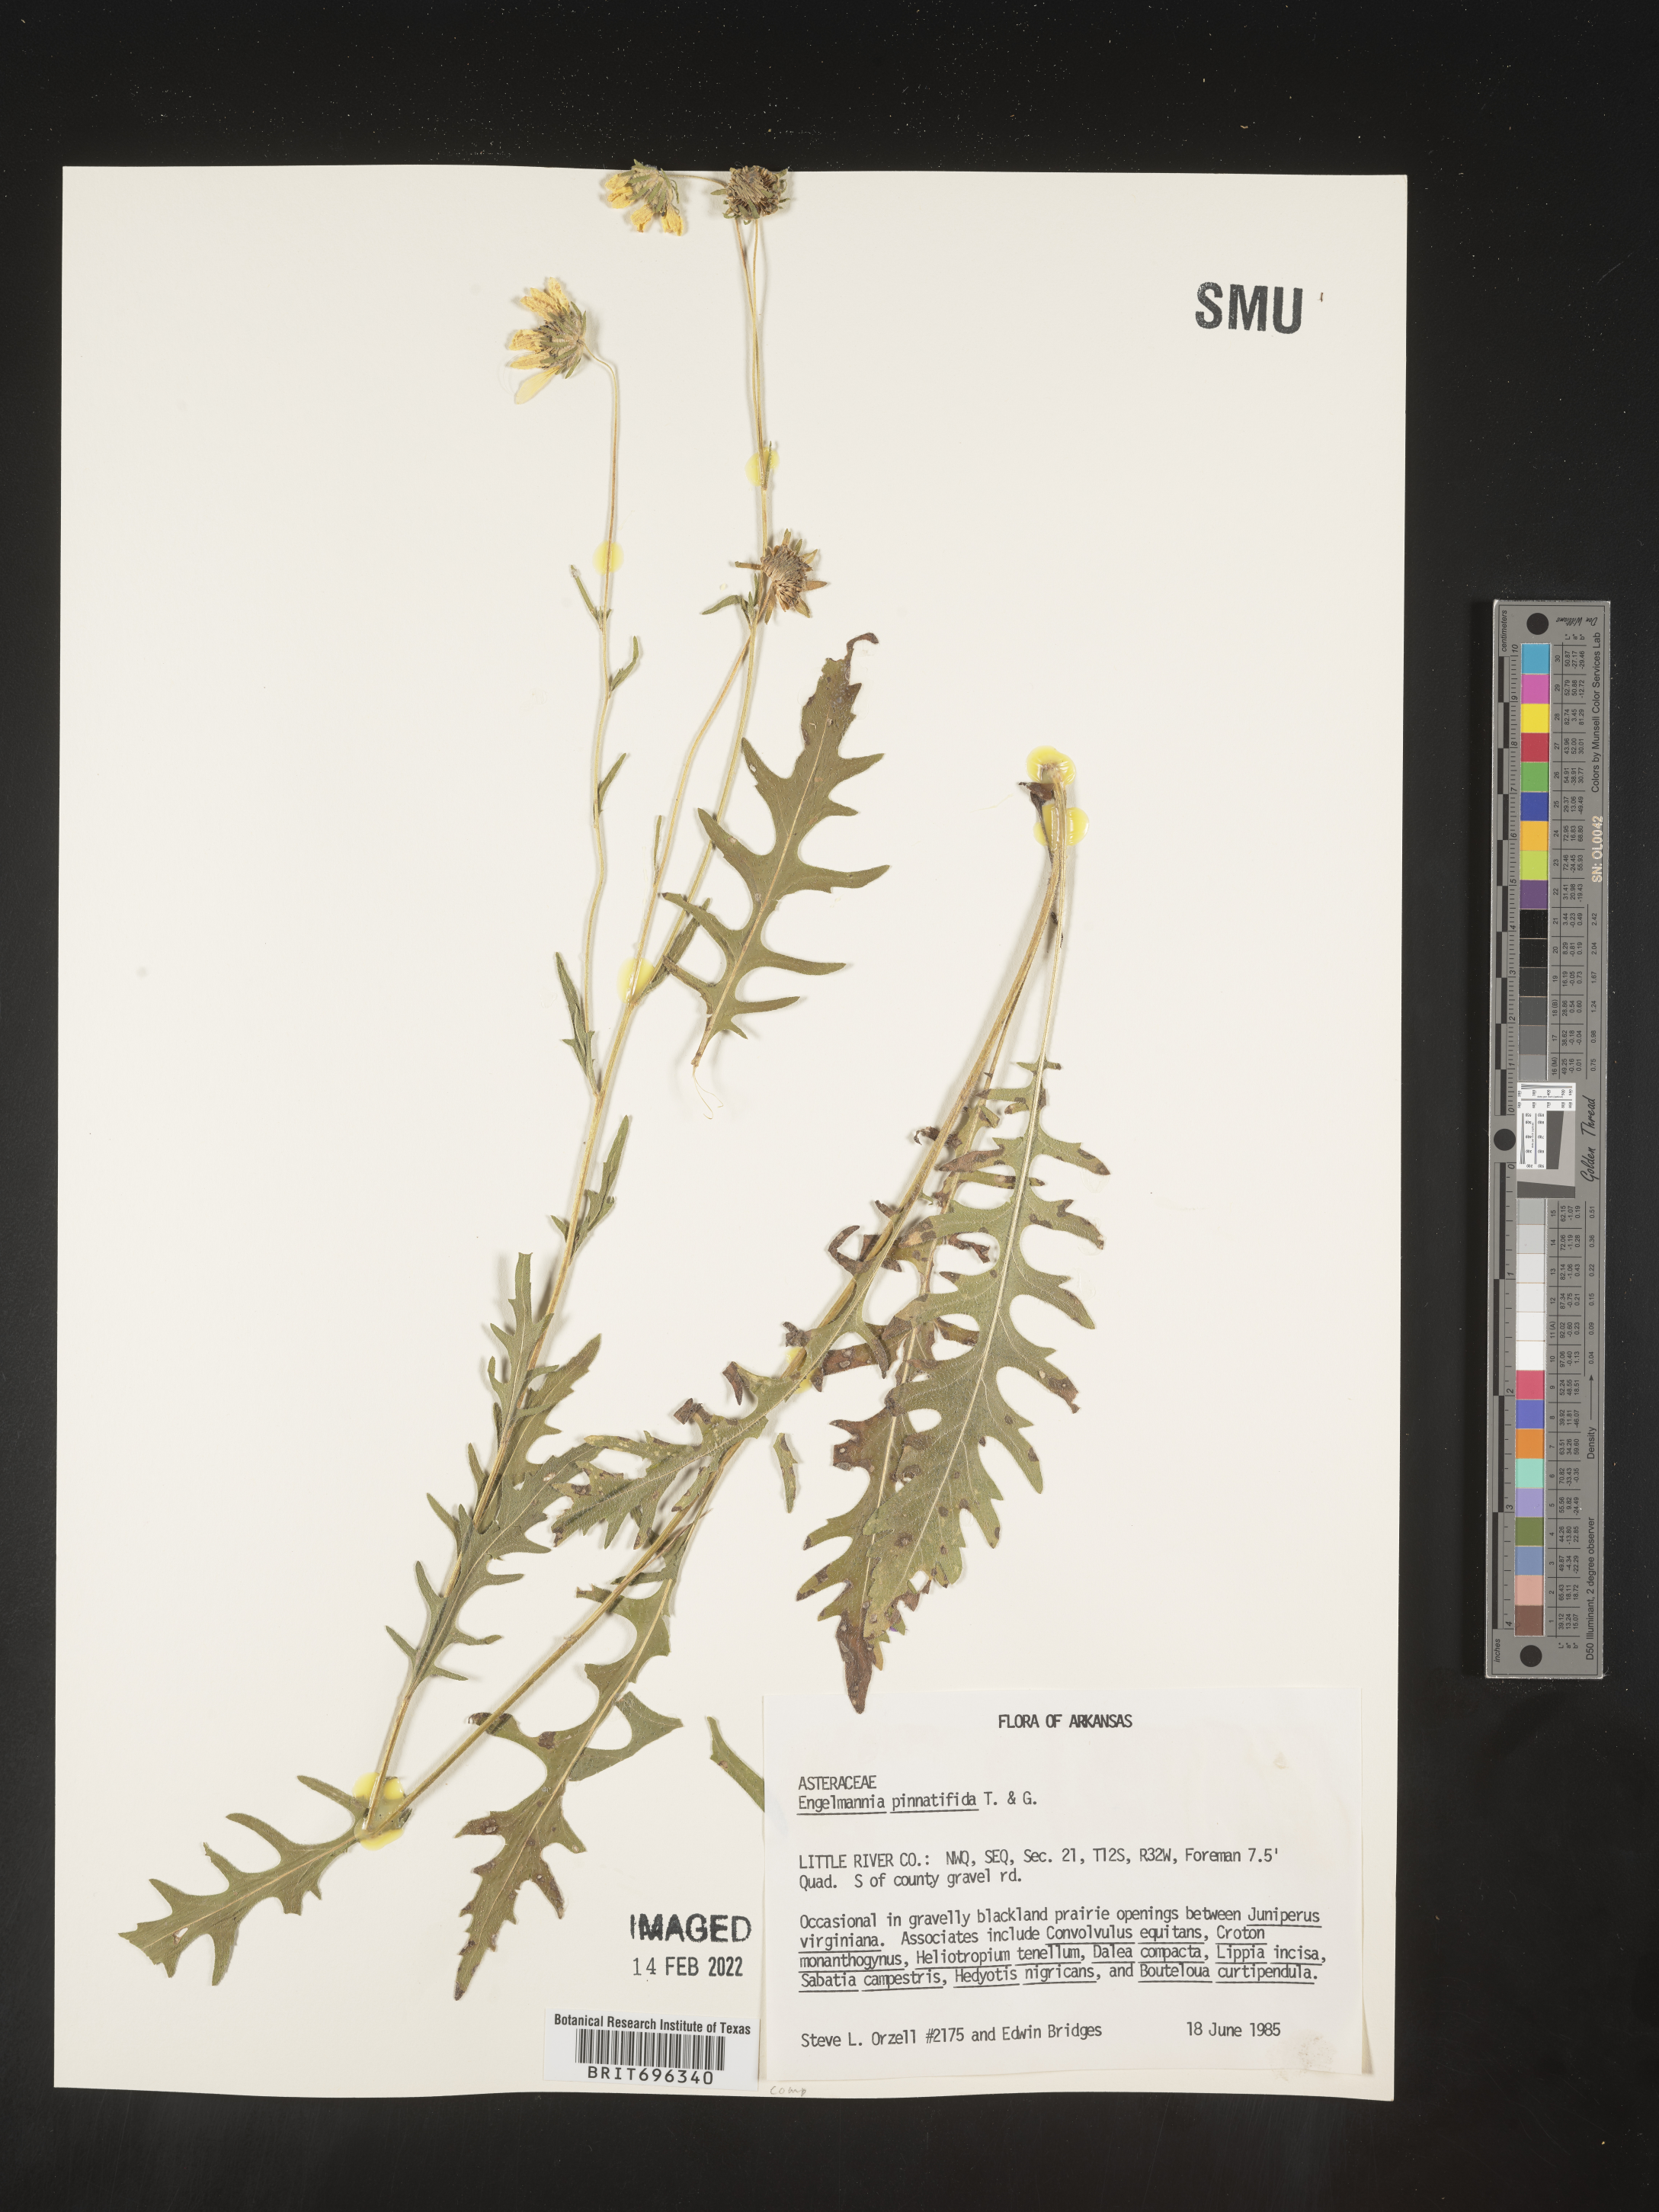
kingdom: Plantae
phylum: Tracheophyta
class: Magnoliopsida
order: Asterales
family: Asteraceae
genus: Engelmannia
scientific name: Engelmannia peristenia
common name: Engelmann's daisy
